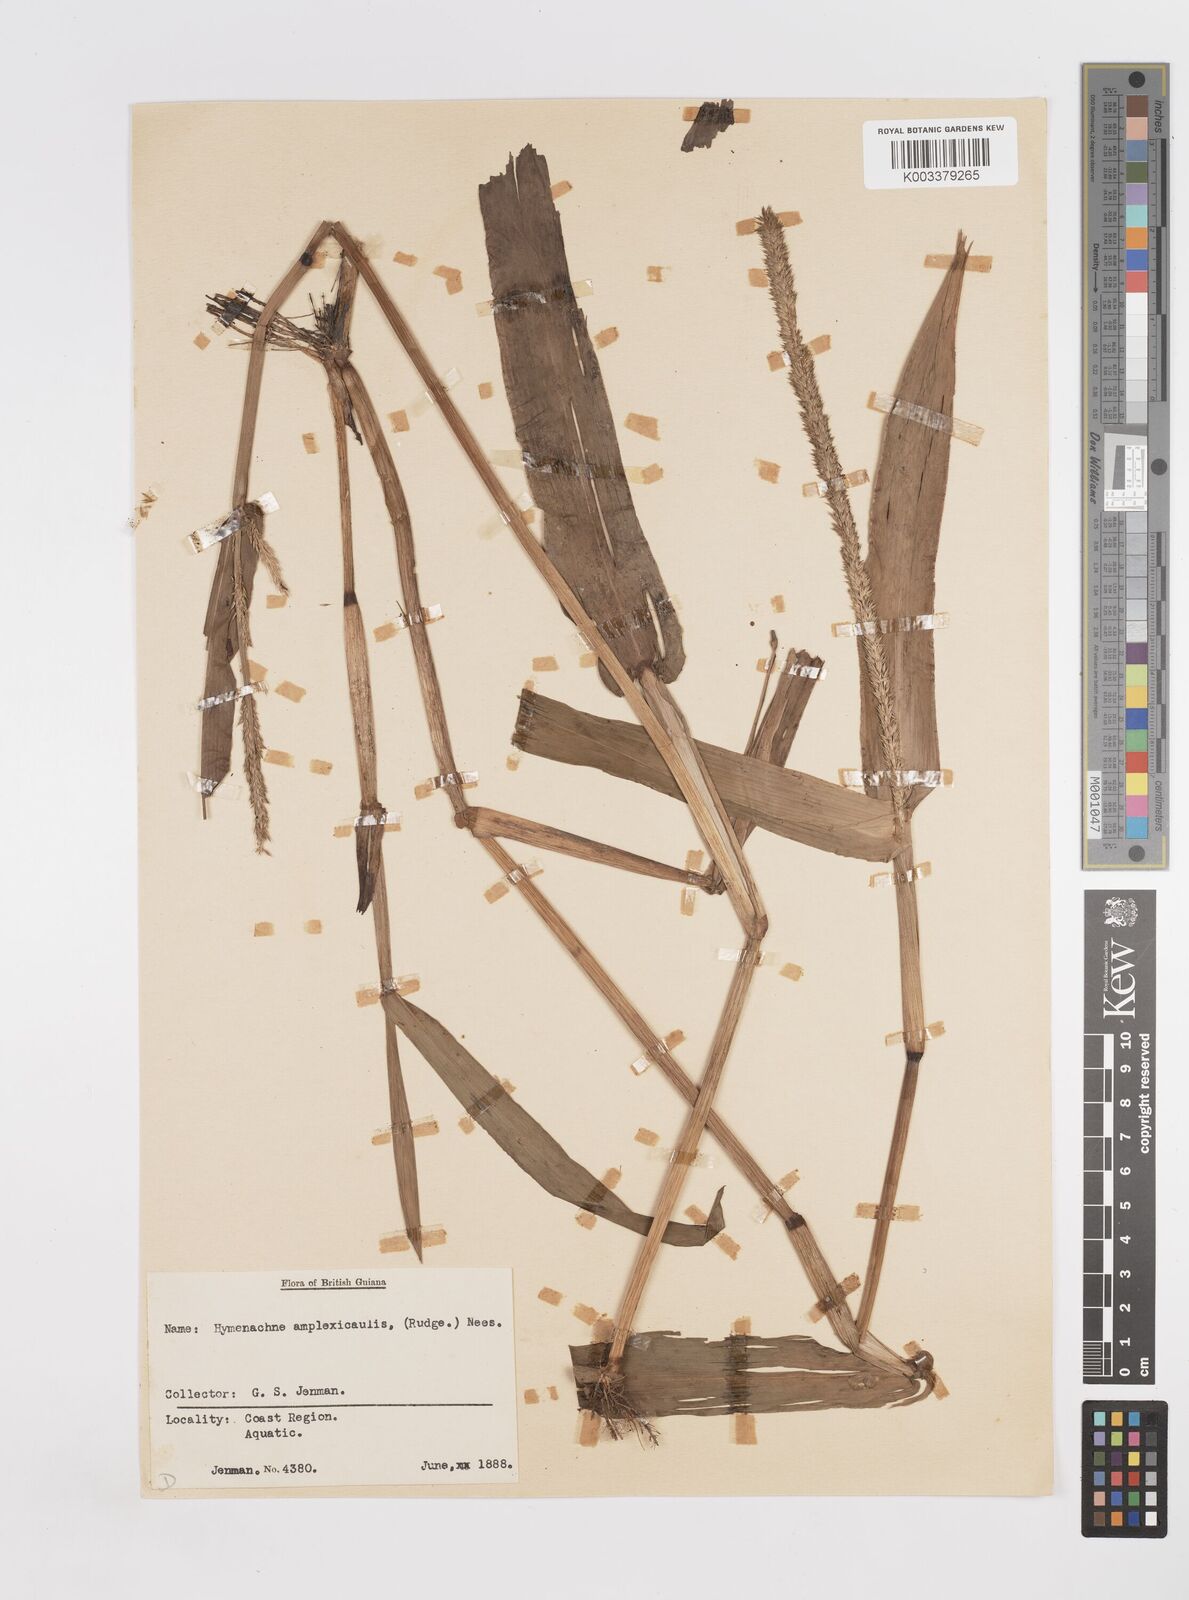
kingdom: Plantae
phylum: Tracheophyta
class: Liliopsida
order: Poales
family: Poaceae
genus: Hymenachne
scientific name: Hymenachne amplexicaulis
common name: Olive hymenachne
